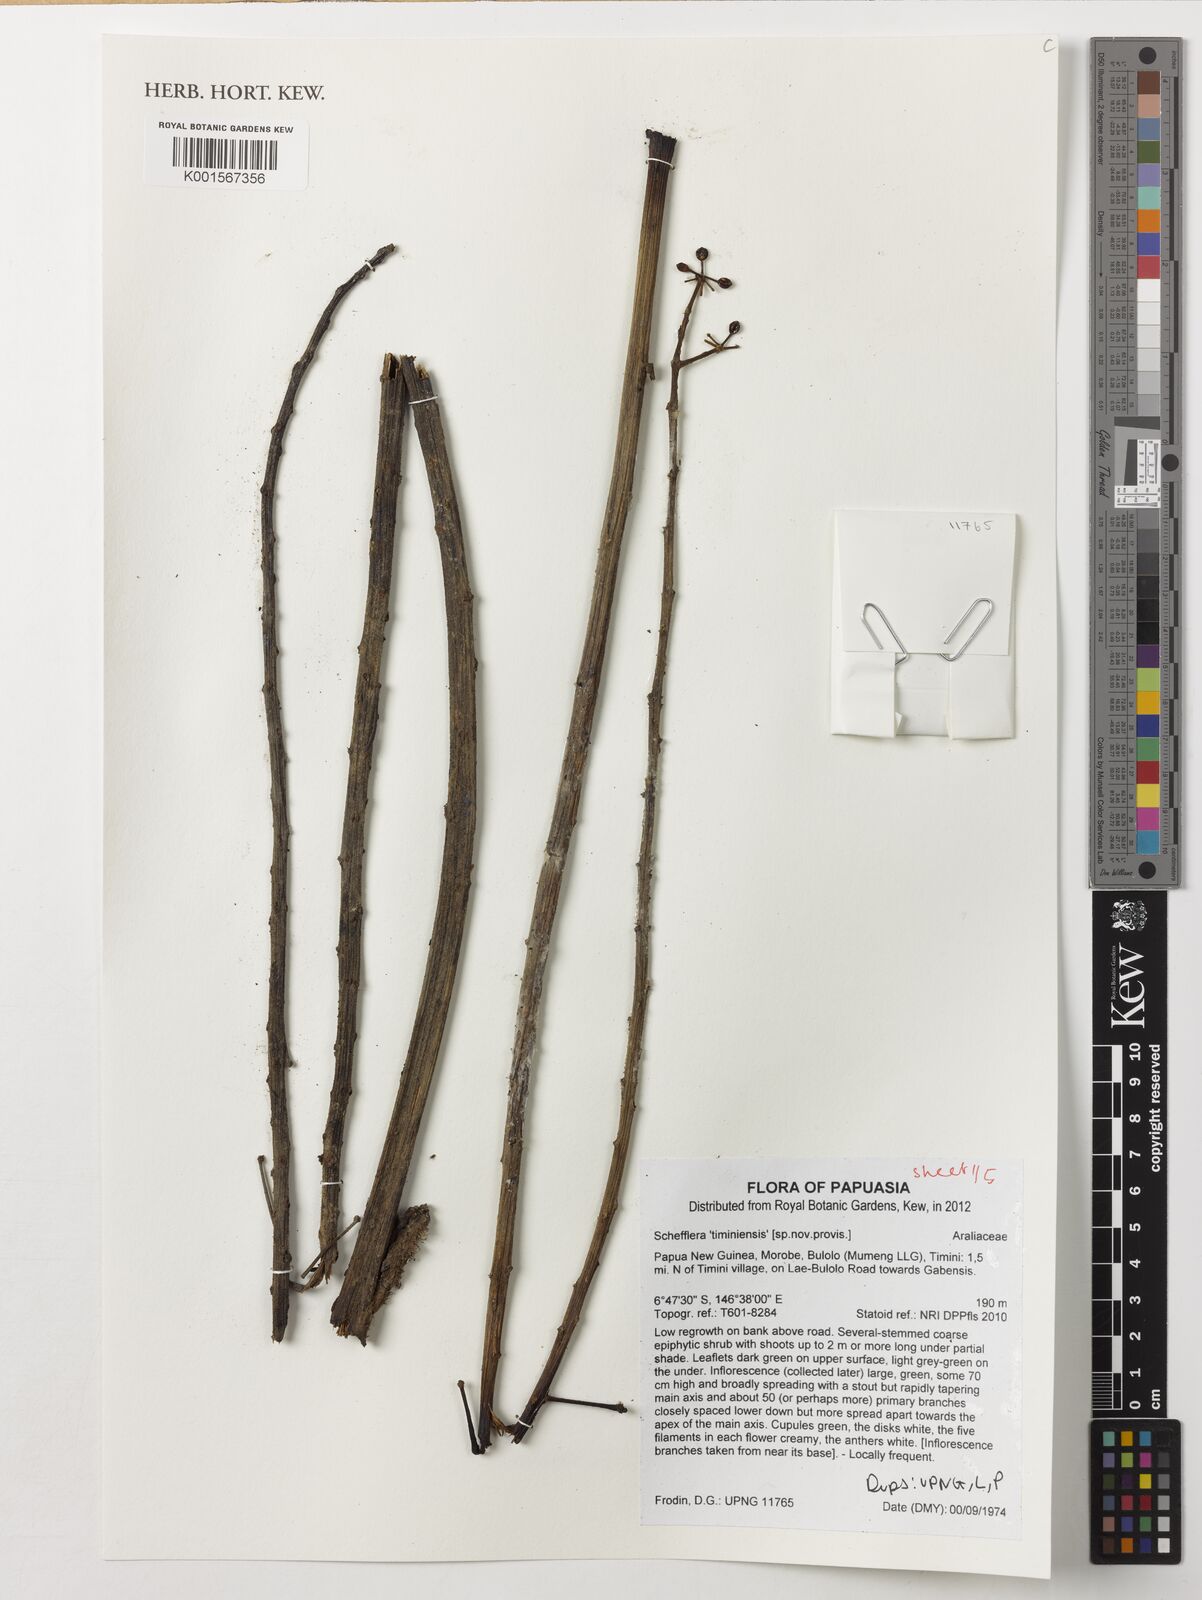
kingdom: Plantae
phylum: Tracheophyta
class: Magnoliopsida
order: Apiales
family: Araliaceae
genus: Schefflera
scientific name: Schefflera
